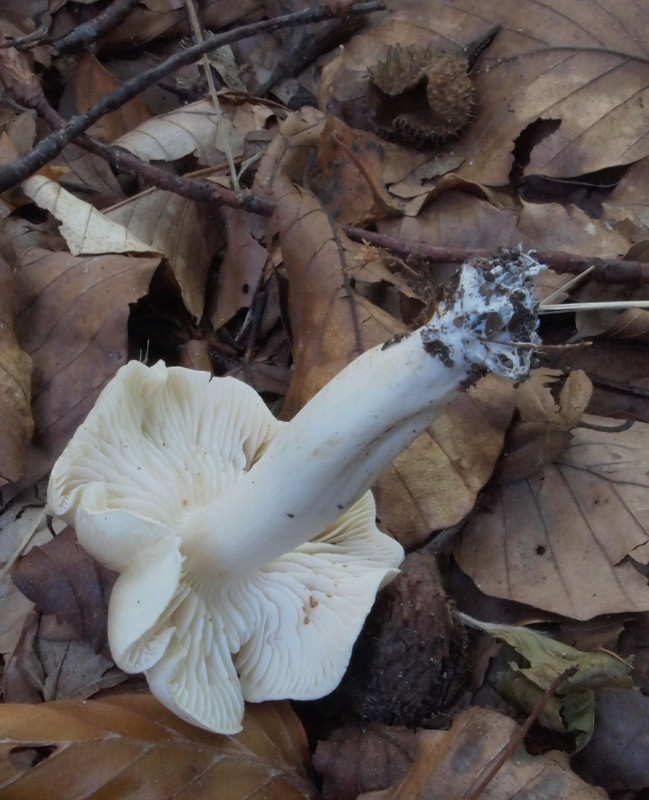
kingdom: Fungi
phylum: Basidiomycota
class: Agaricomycetes
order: Agaricales
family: Tricholomataceae
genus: Tricholoma
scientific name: Tricholoma lascivum
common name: stinkende ridderhat
